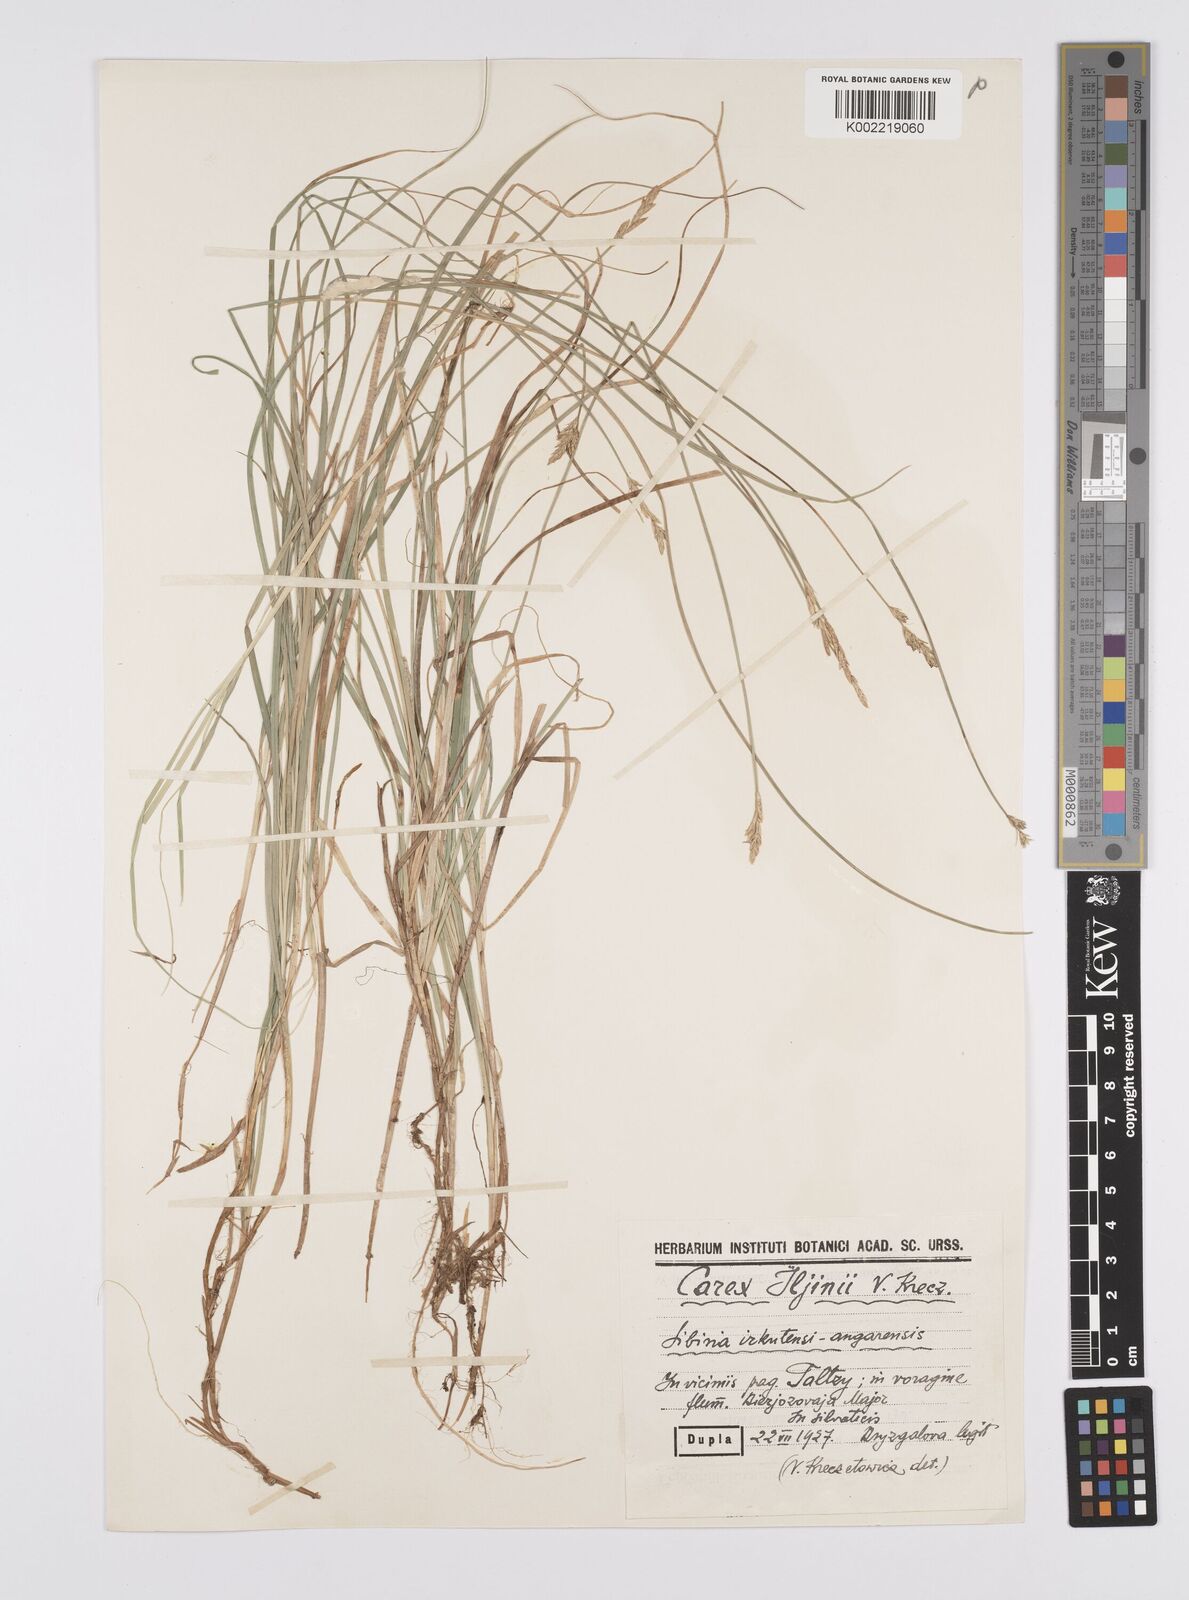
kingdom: Plantae
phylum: Tracheophyta
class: Liliopsida
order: Poales
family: Cyperaceae
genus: Carex
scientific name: Carex iljinii
